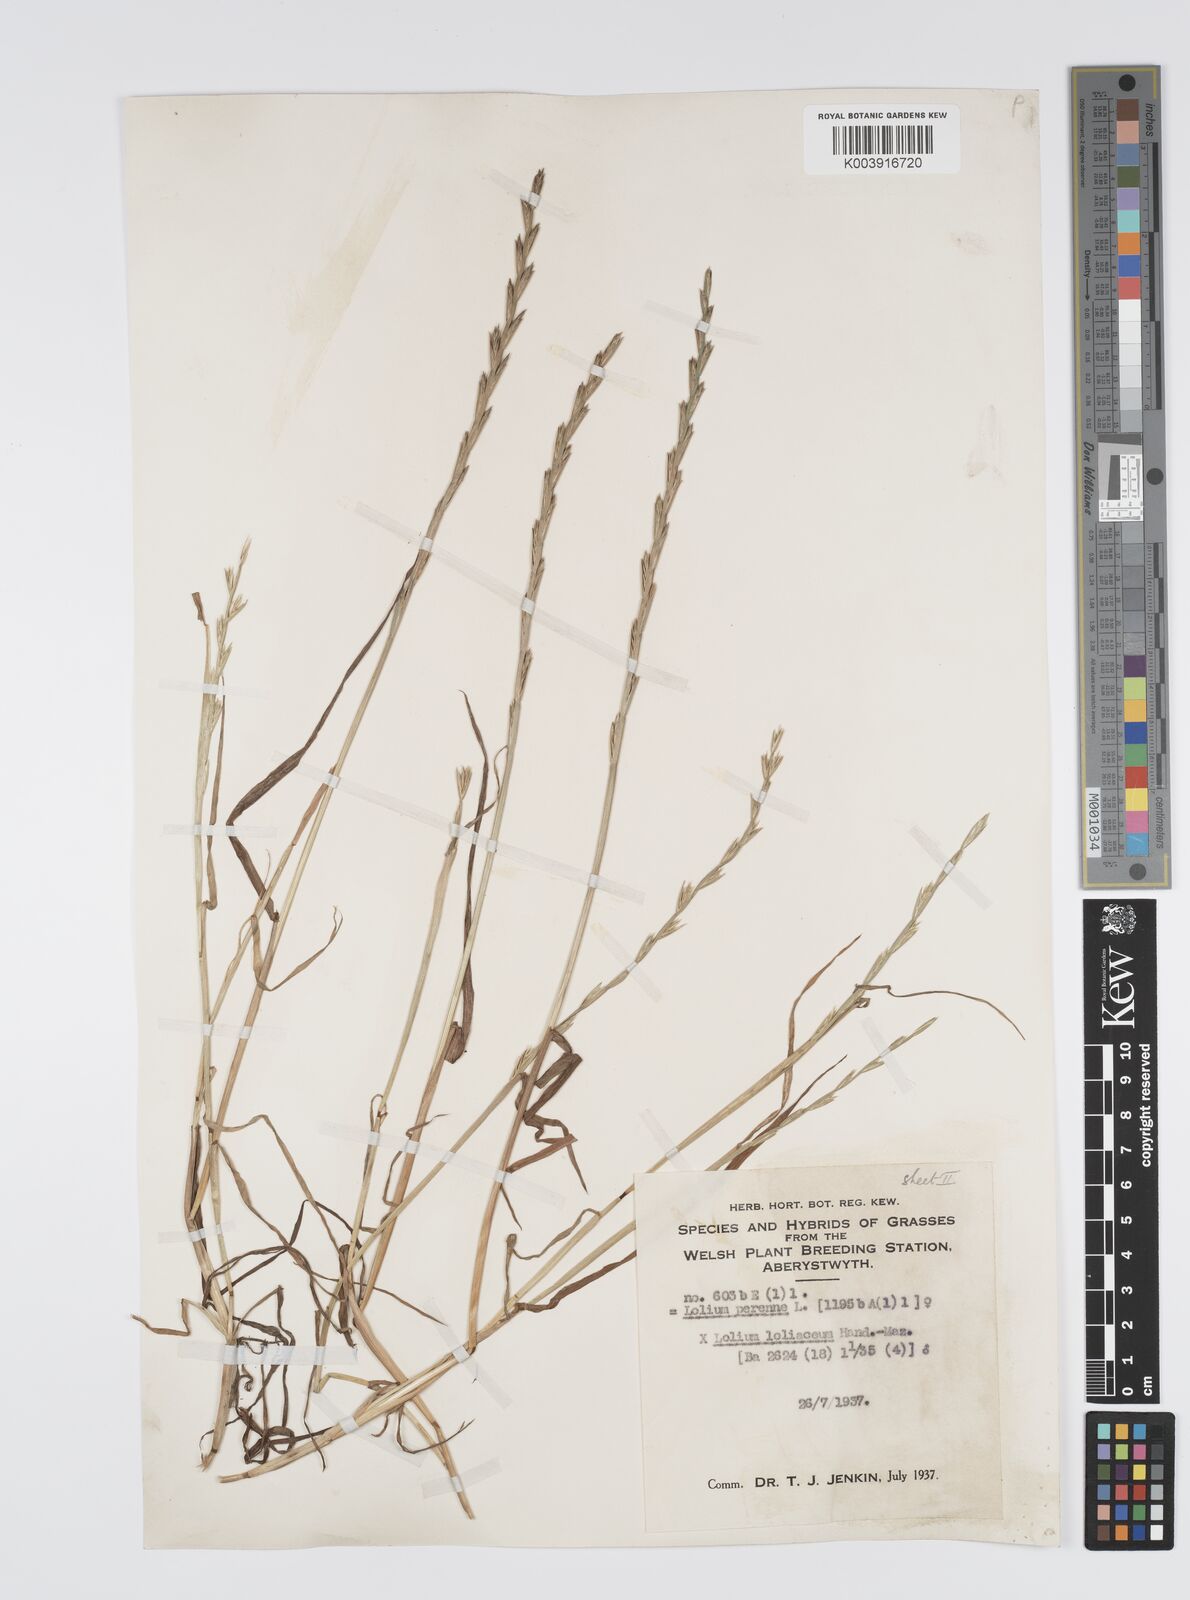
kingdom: Plantae
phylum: Tracheophyta
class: Liliopsida
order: Poales
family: Poaceae
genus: Lolium
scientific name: Lolium perenne
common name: Perennial ryegrass
